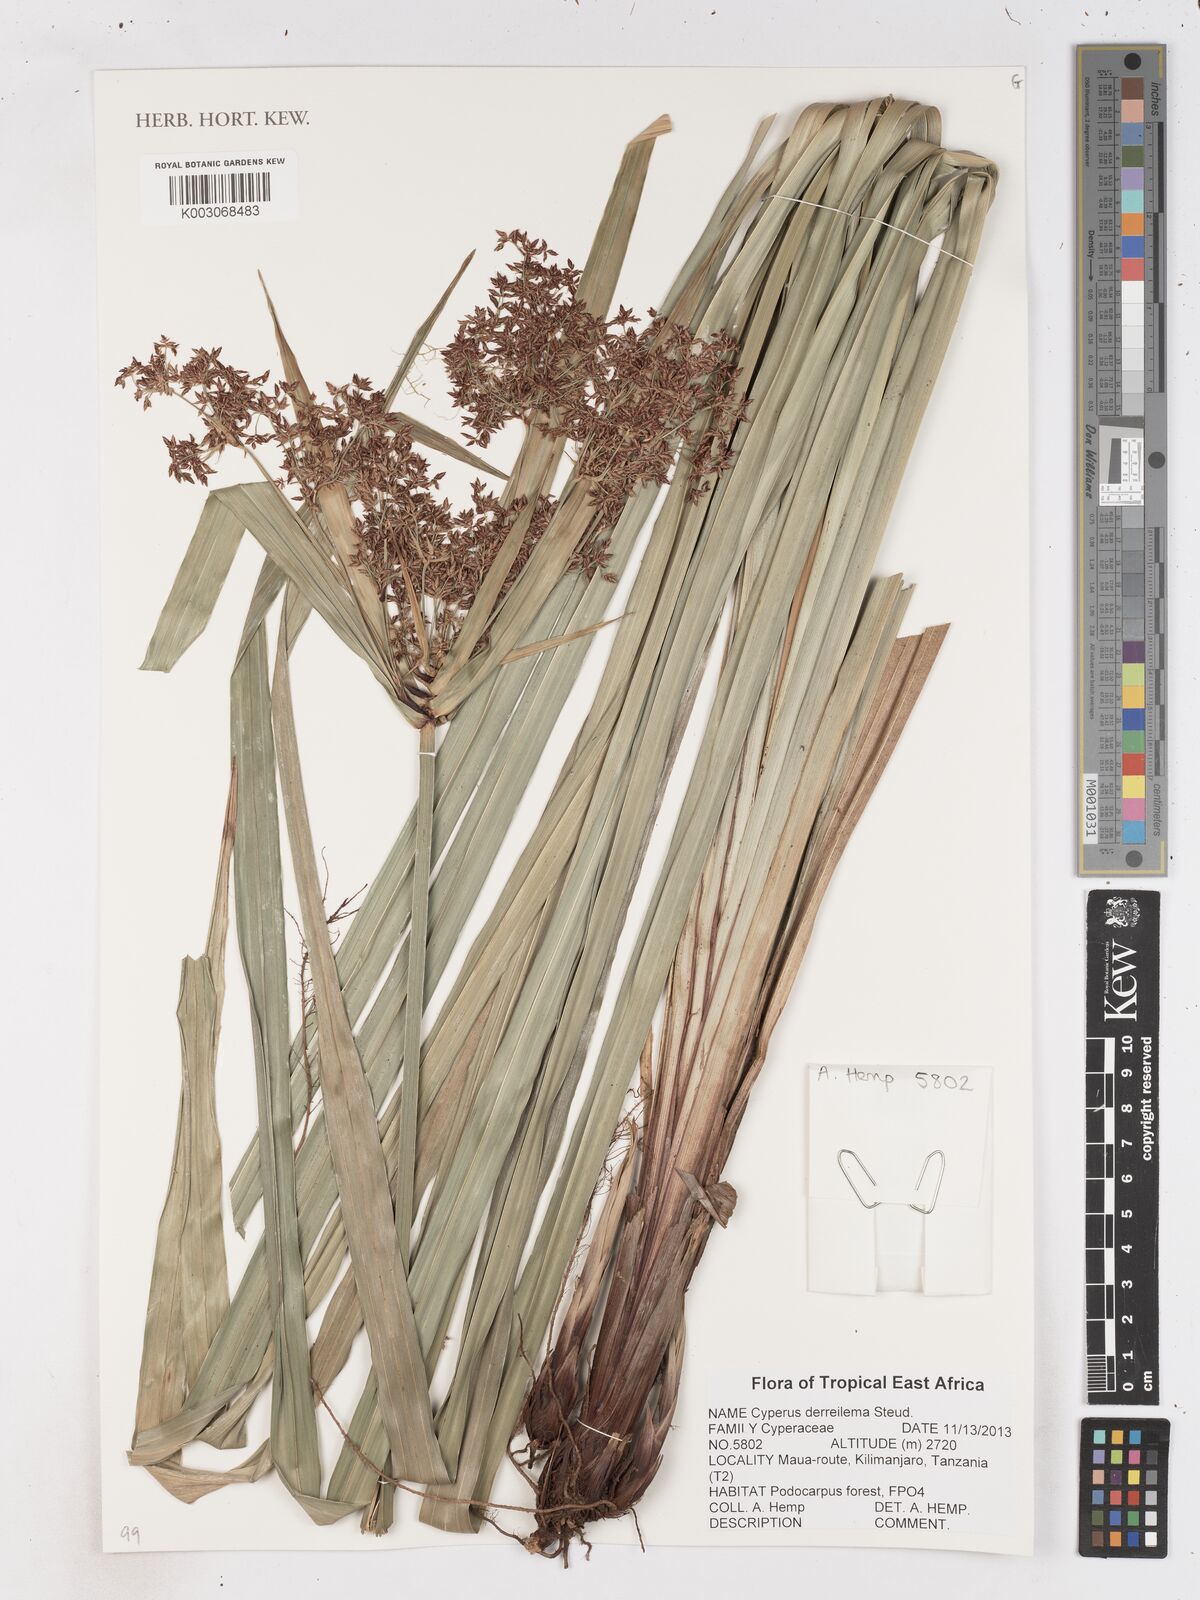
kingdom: Plantae
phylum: Tracheophyta
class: Liliopsida
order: Poales
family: Cyperaceae
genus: Cyperus
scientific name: Cyperus derreilema
